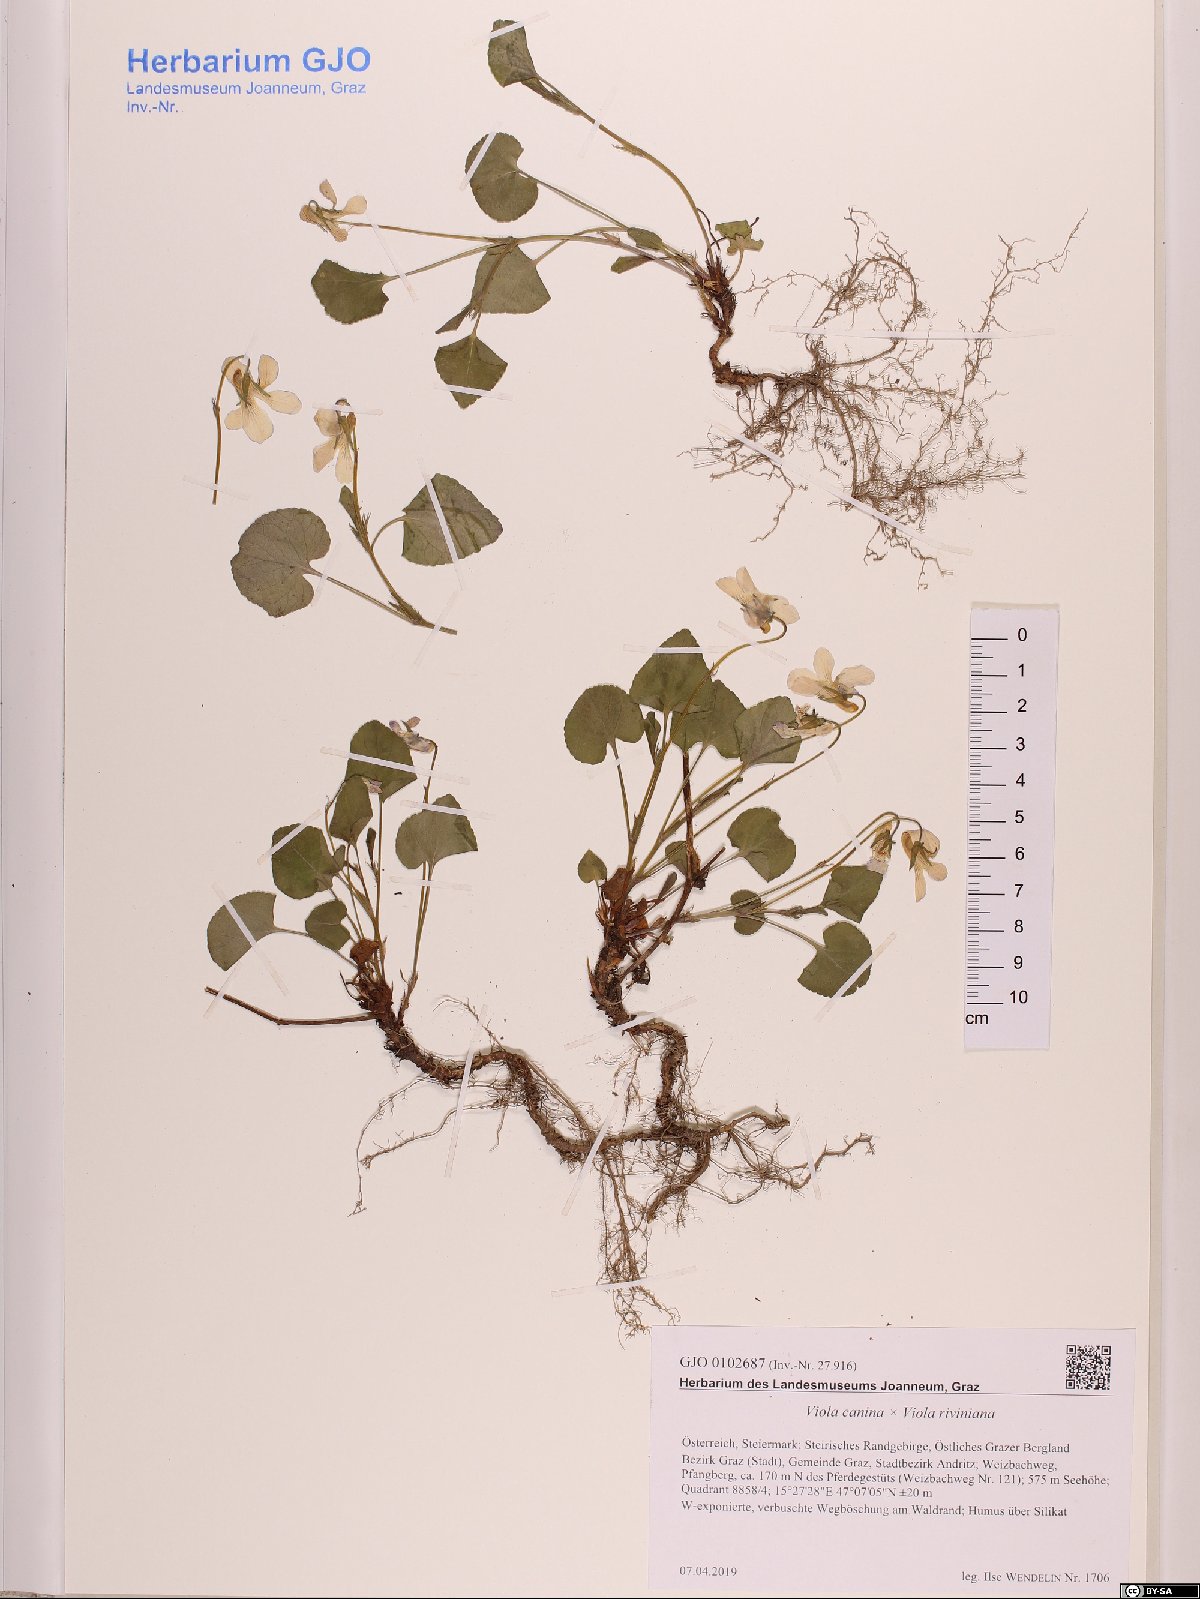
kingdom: Plantae
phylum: Tracheophyta
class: Magnoliopsida
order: Malpighiales
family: Violaceae
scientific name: Violaceae
